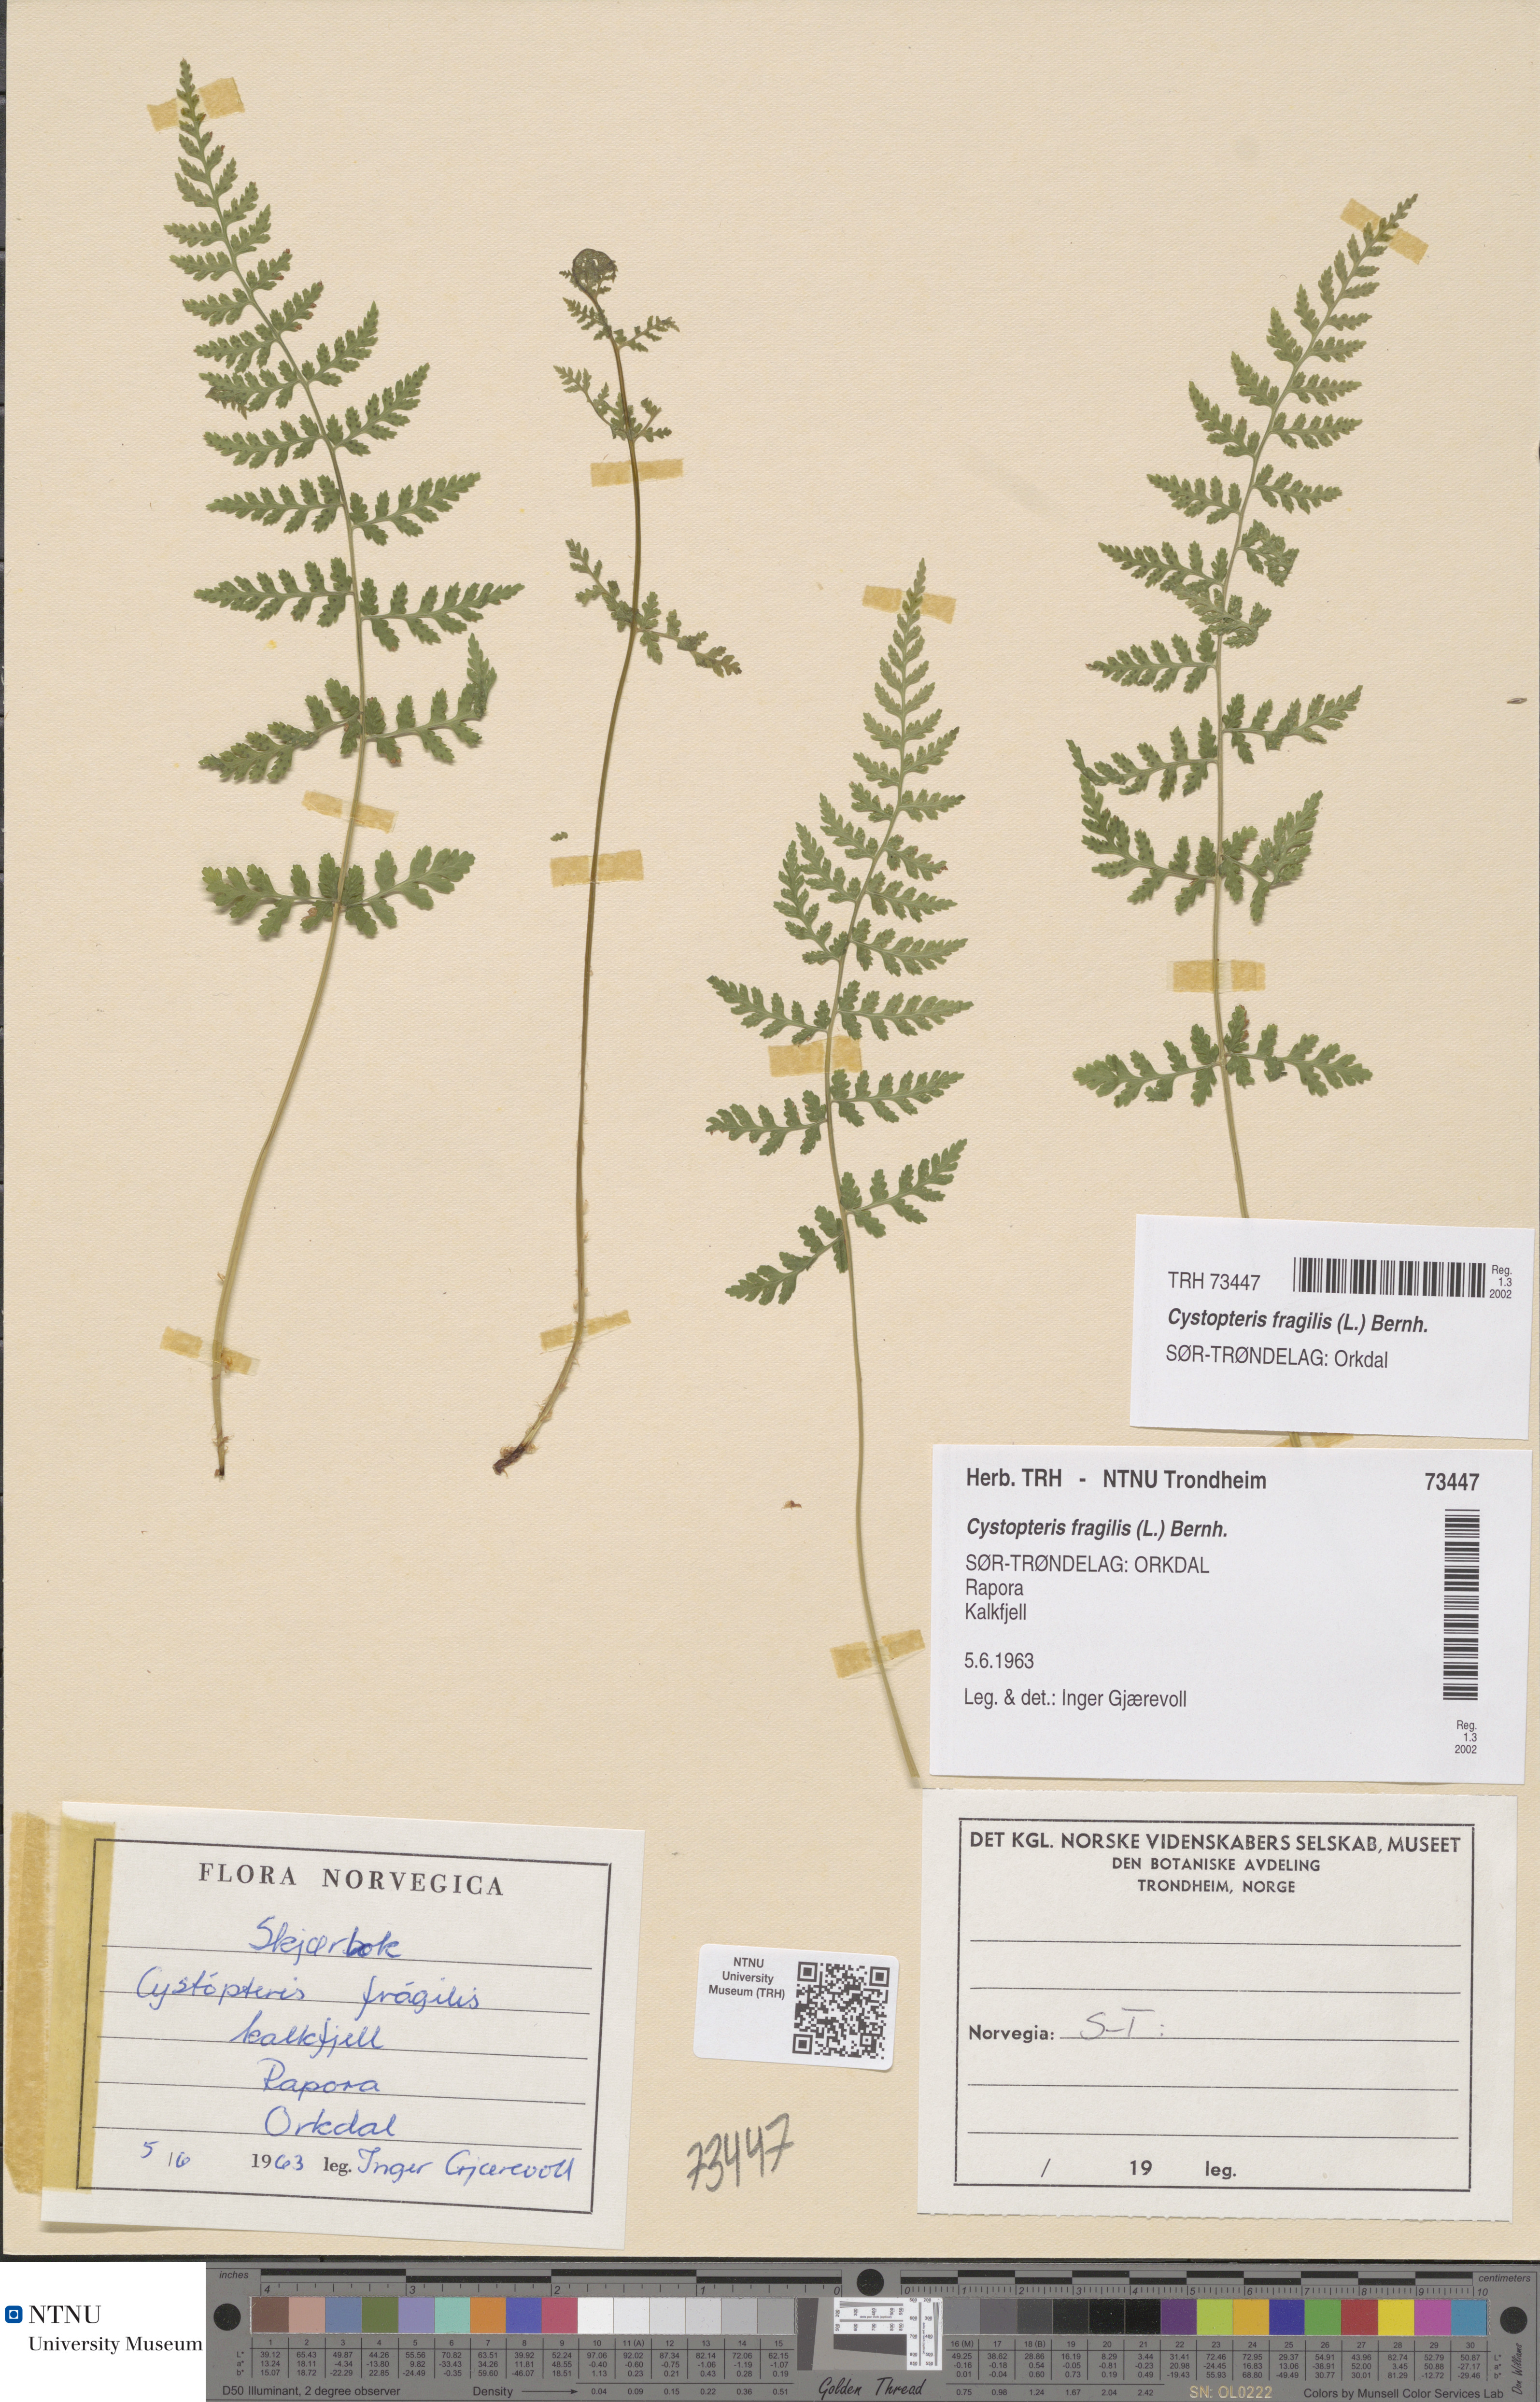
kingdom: Plantae
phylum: Tracheophyta
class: Polypodiopsida
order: Polypodiales
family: Cystopteridaceae
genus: Cystopteris
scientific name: Cystopteris fragilis
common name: Brittle bladder fern
